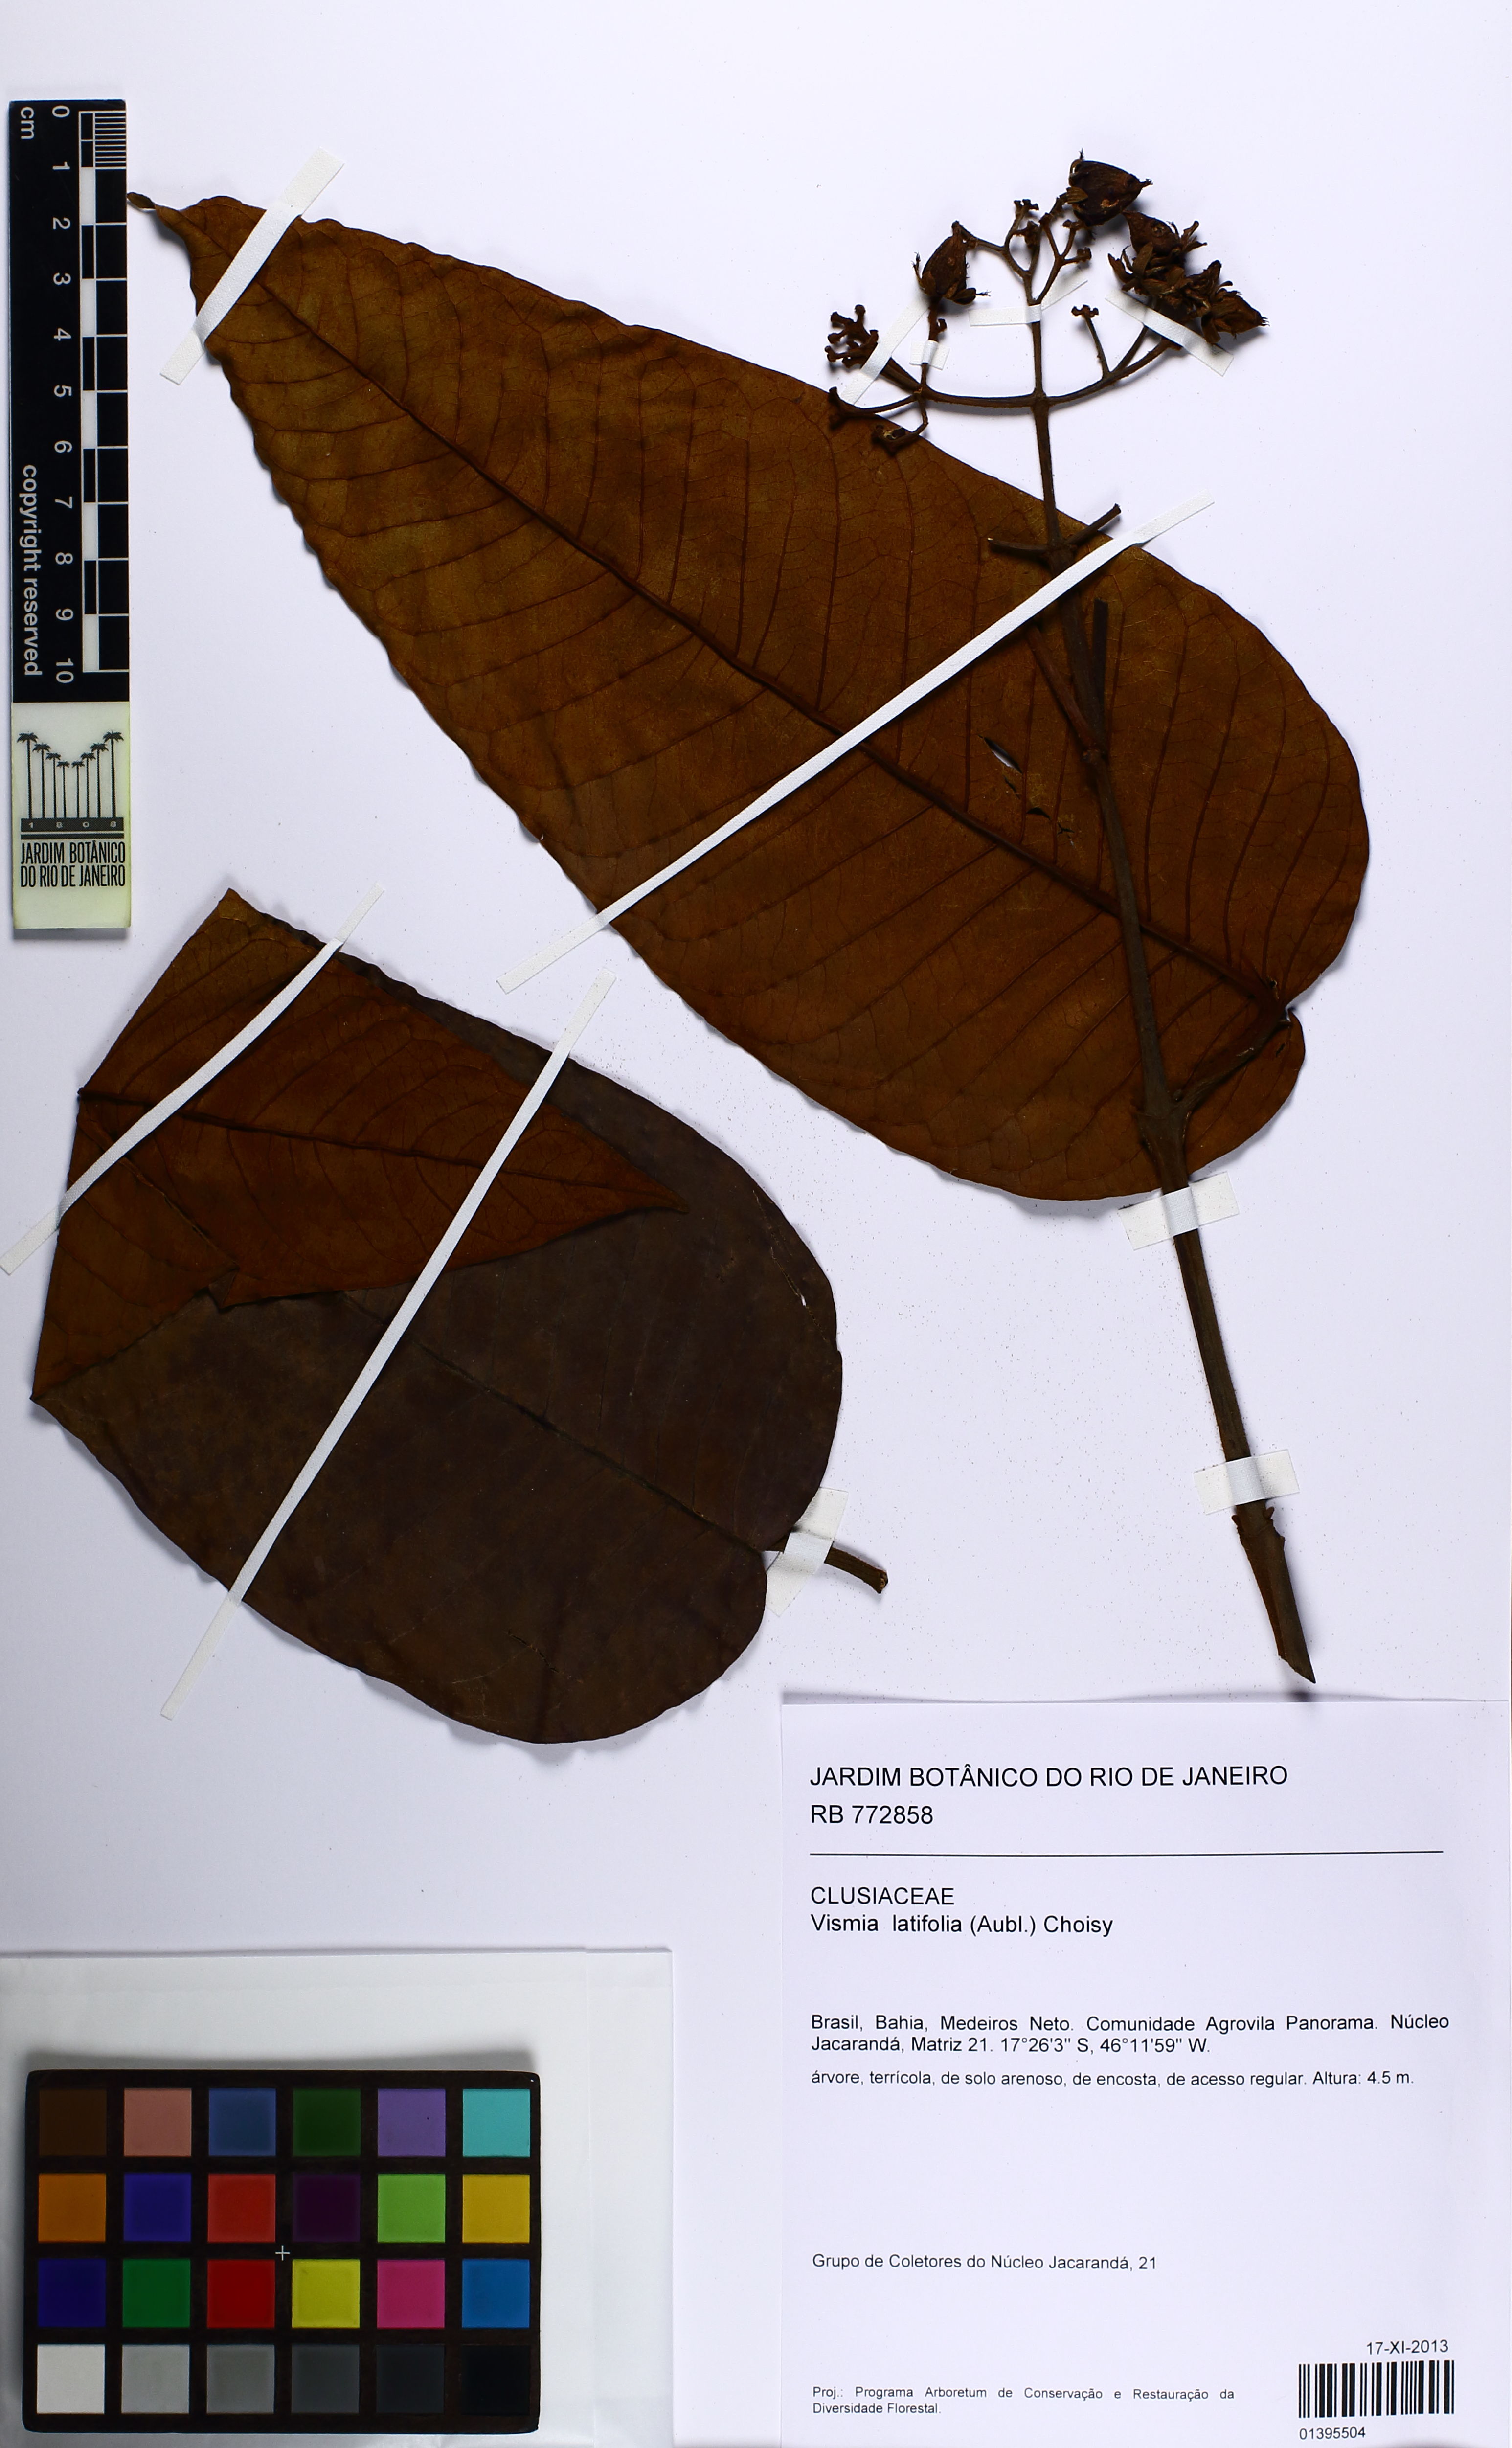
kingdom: Plantae
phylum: Tracheophyta
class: Magnoliopsida
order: Malpighiales
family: Hypericaceae
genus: Vismia
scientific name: Vismia latifolia
